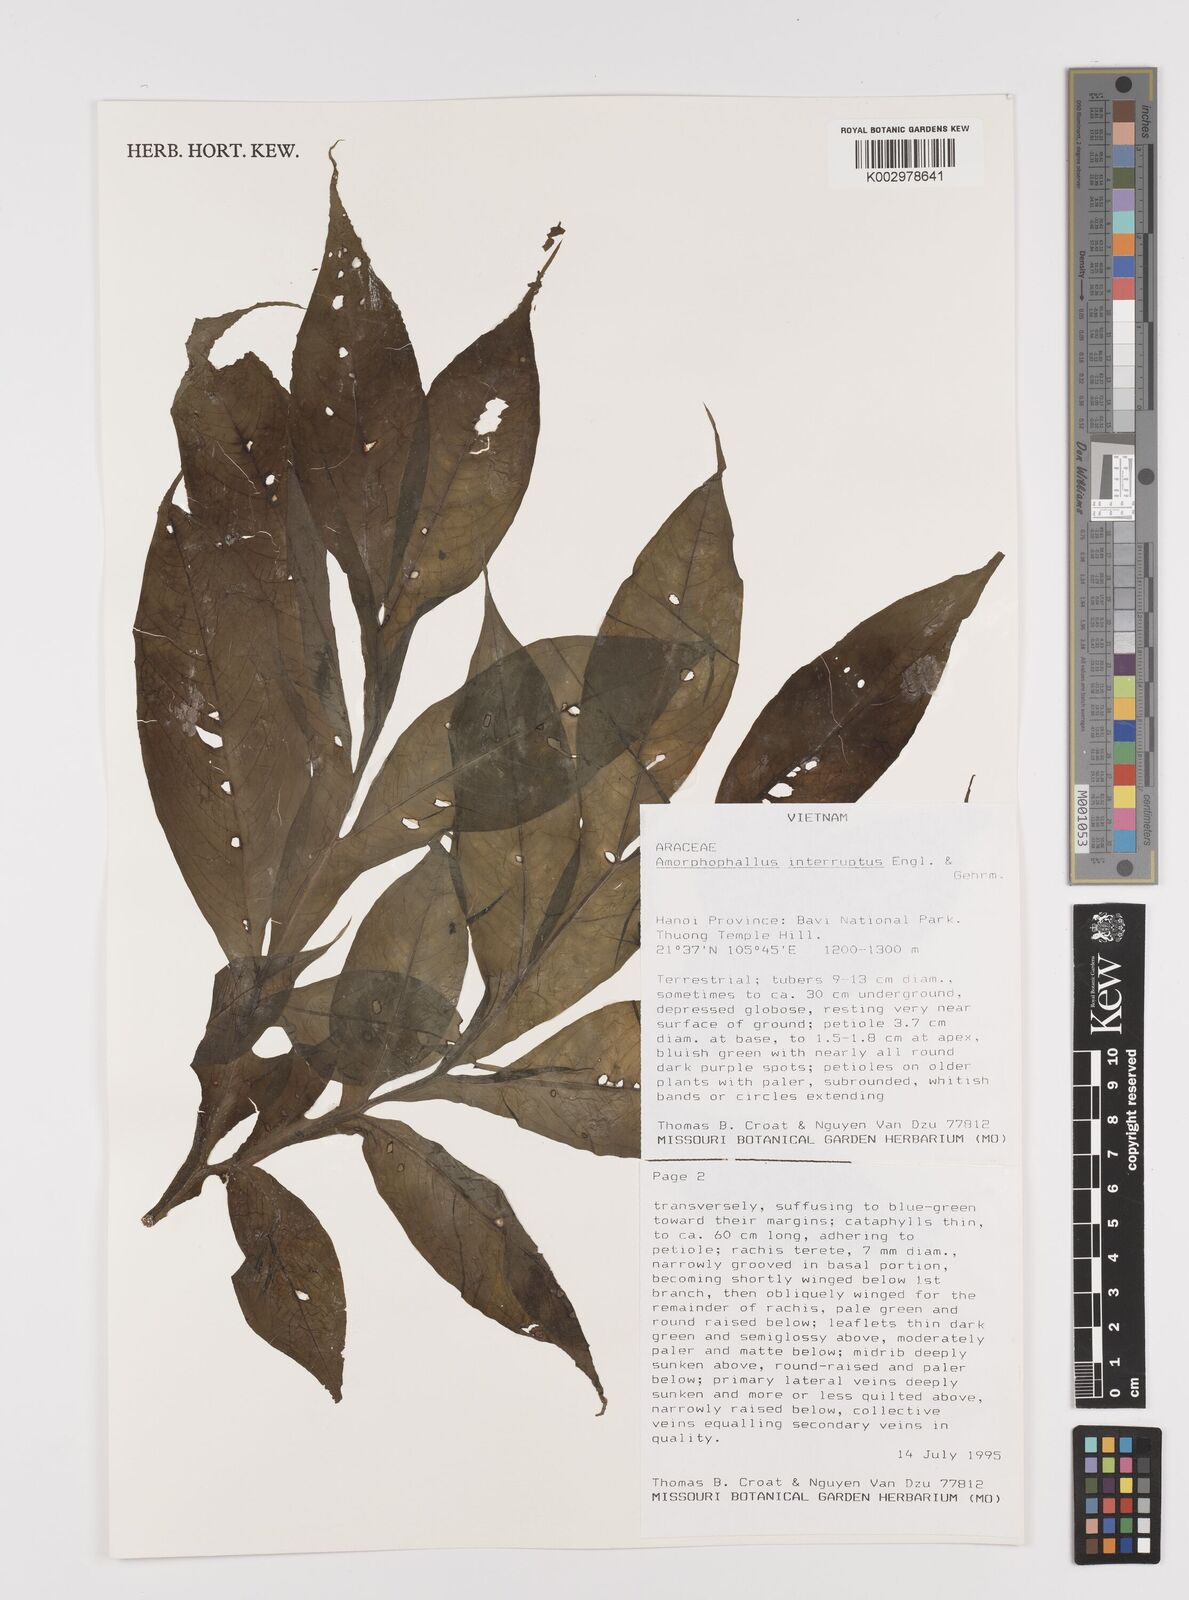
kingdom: Plantae
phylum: Tracheophyta
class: Liliopsida
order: Alismatales
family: Araceae
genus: Amorphophallus
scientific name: Amorphophallus interruptus
